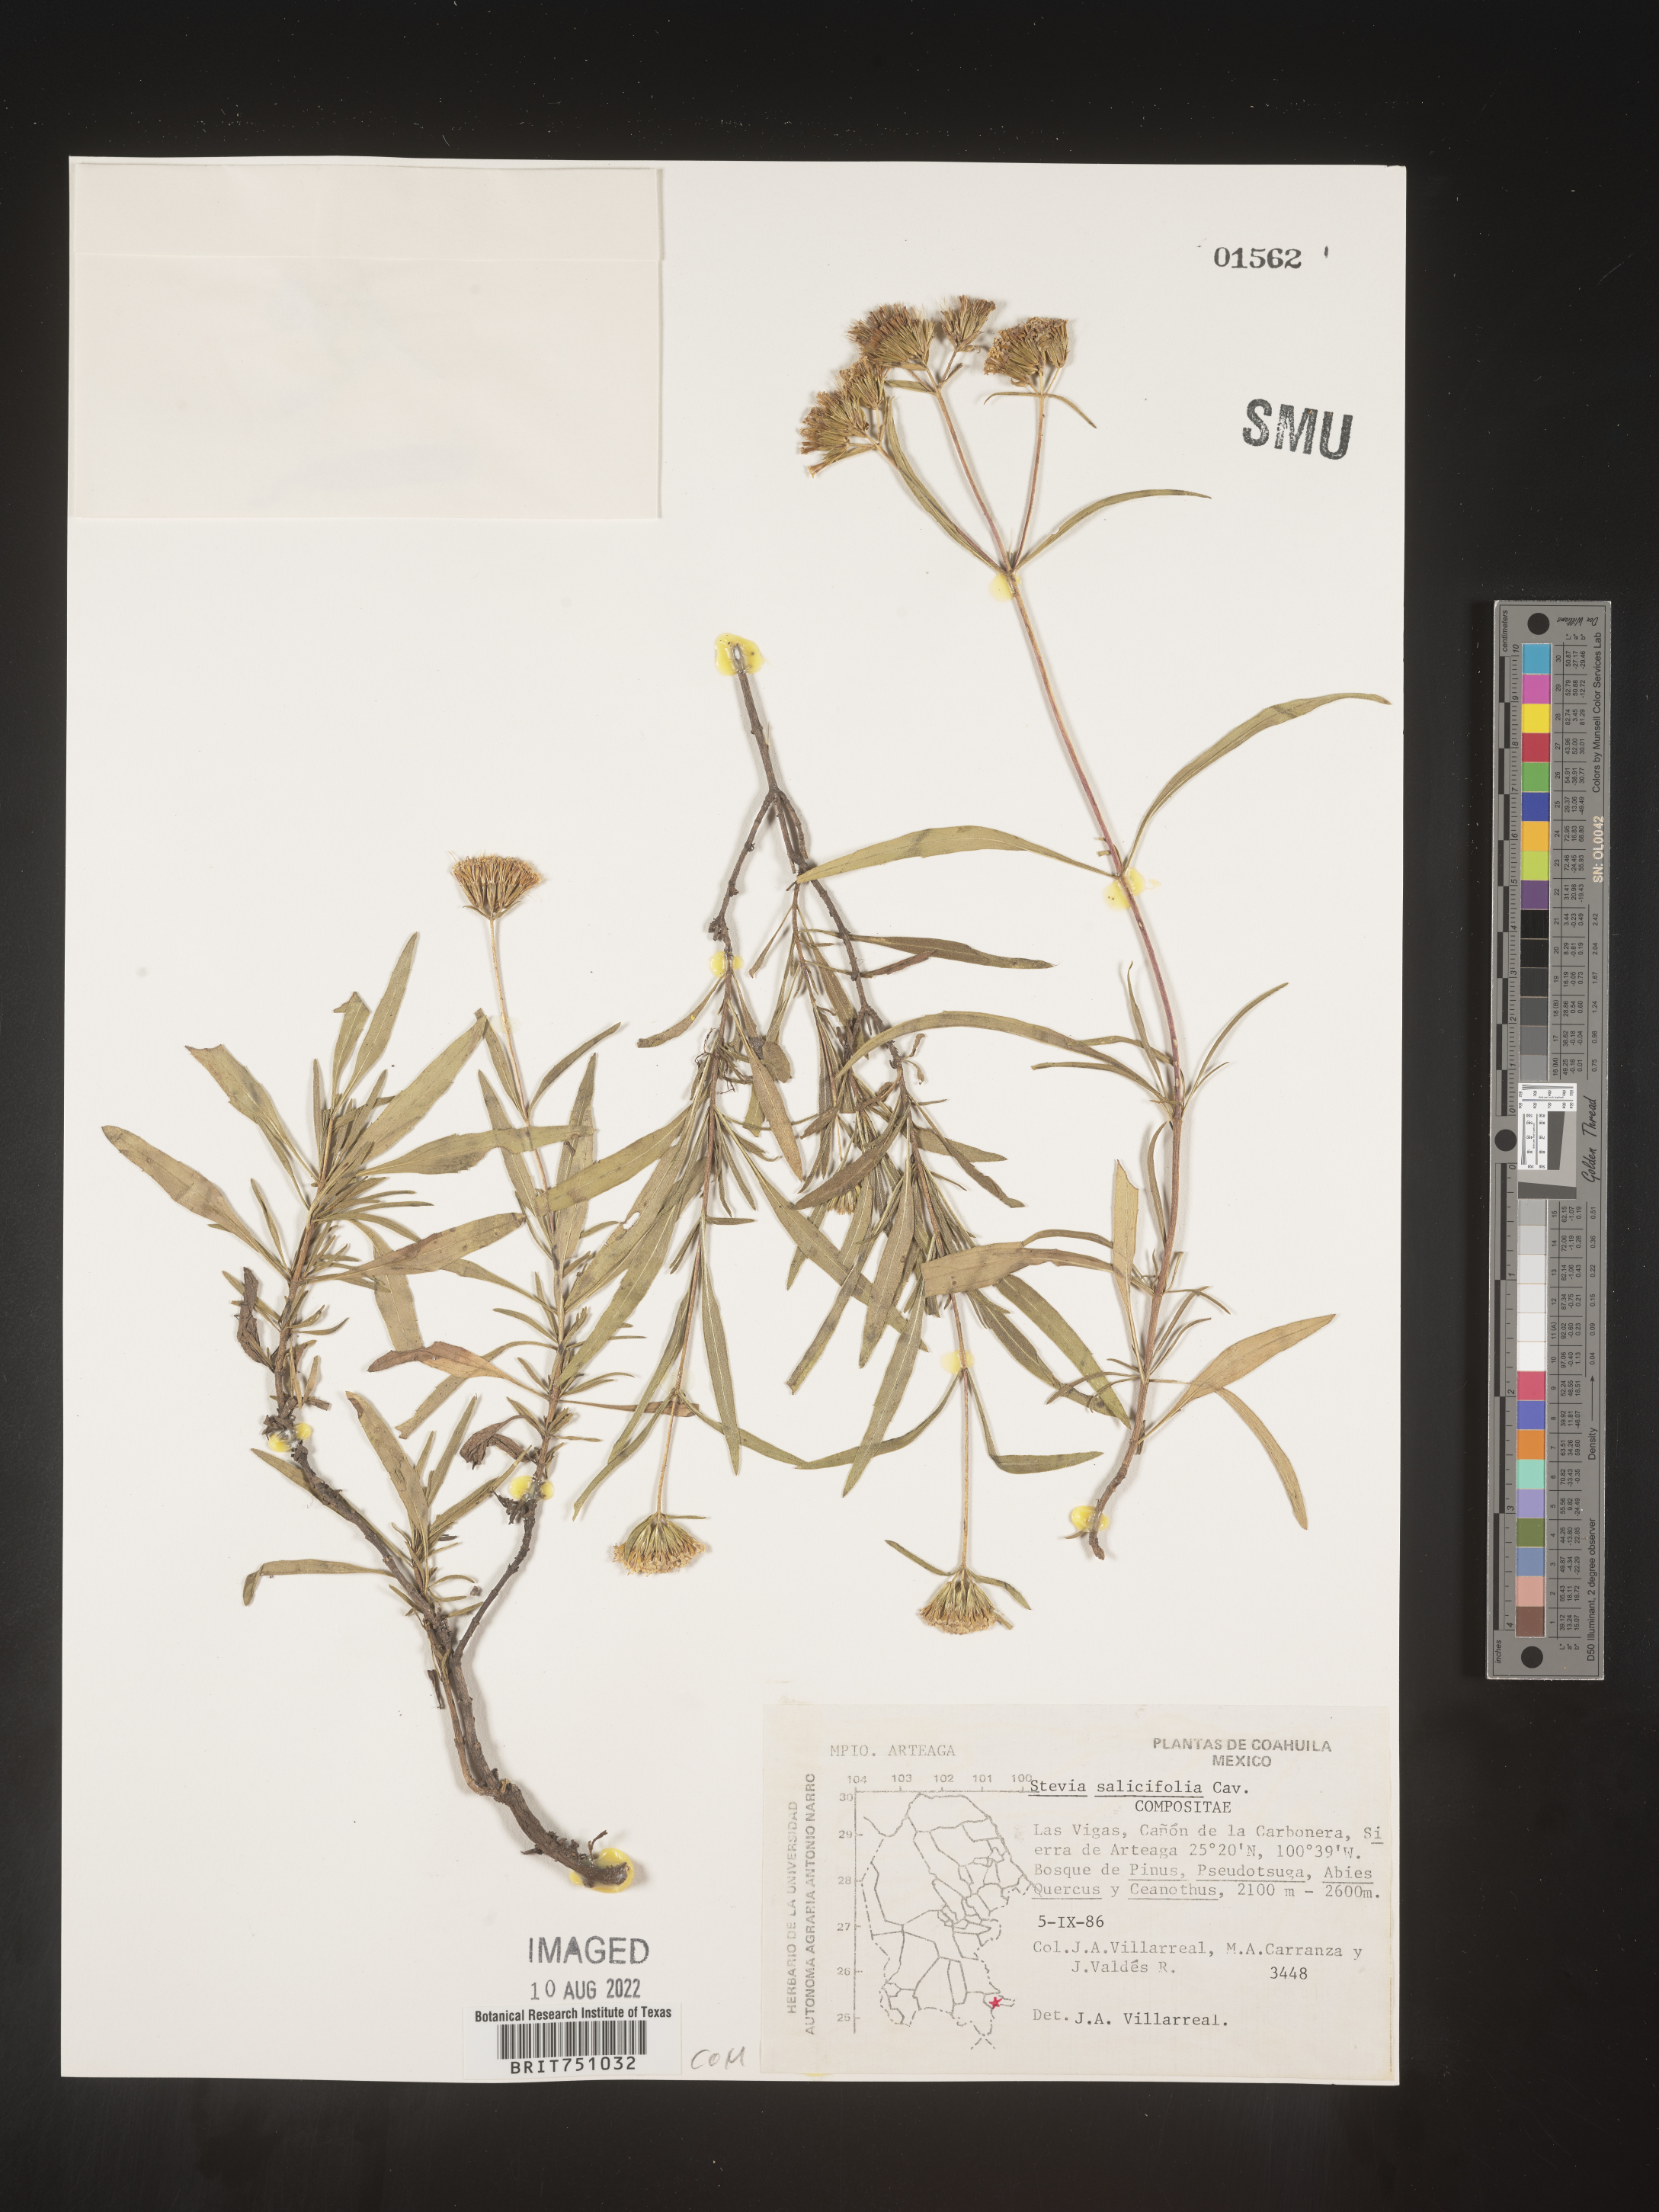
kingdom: Plantae
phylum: Tracheophyta
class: Magnoliopsida
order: Asterales
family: Asteraceae
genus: Stevia
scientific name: Stevia salicifolia
